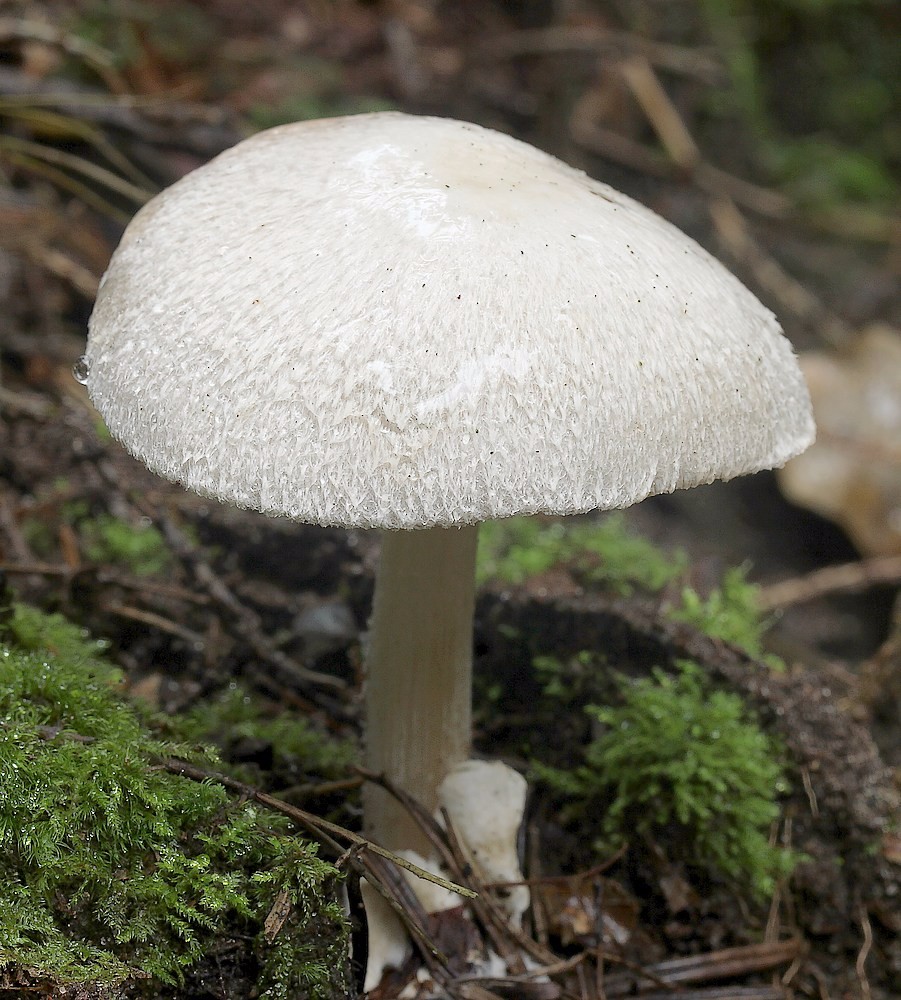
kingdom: Fungi
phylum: Basidiomycota
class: Agaricomycetes
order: Agaricales
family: Pluteaceae
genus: Volvariella
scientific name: Volvariella surrecta
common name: snyltende posesvamp
